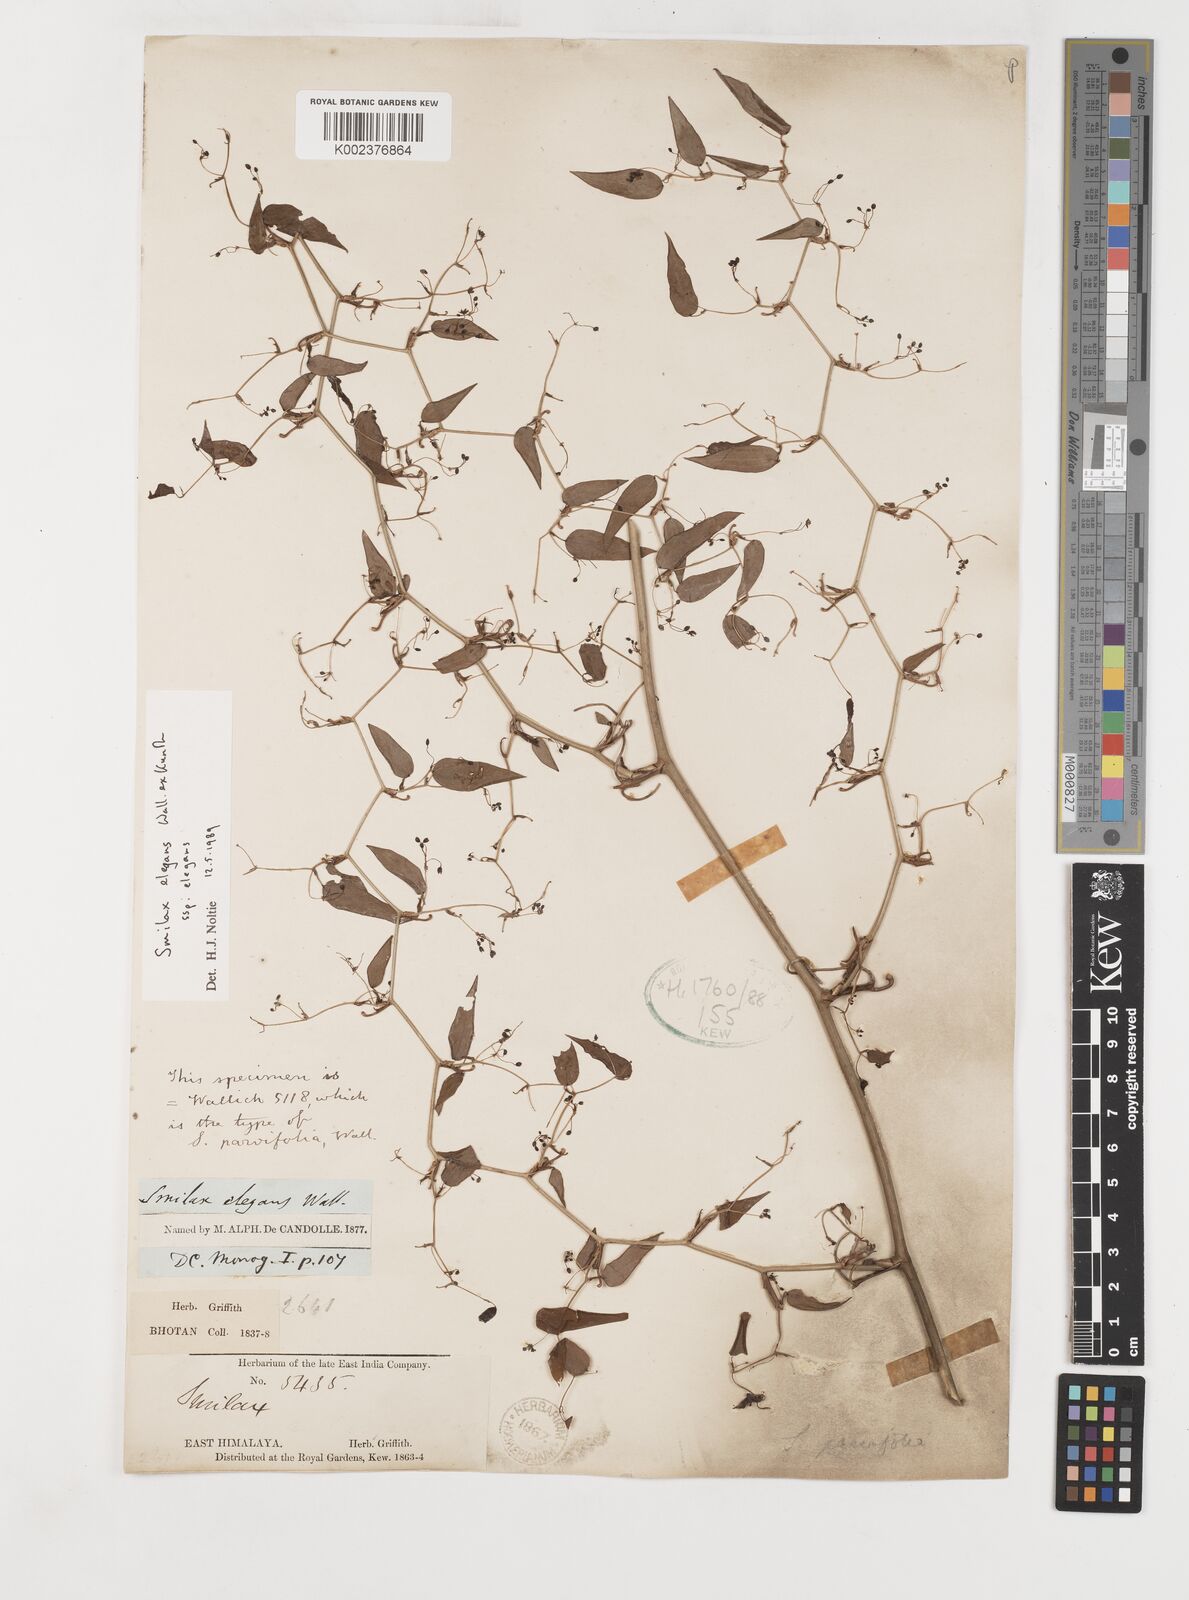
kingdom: Plantae
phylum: Tracheophyta
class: Liliopsida
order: Liliales
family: Smilacaceae
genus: Smilax
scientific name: Smilax elegans
